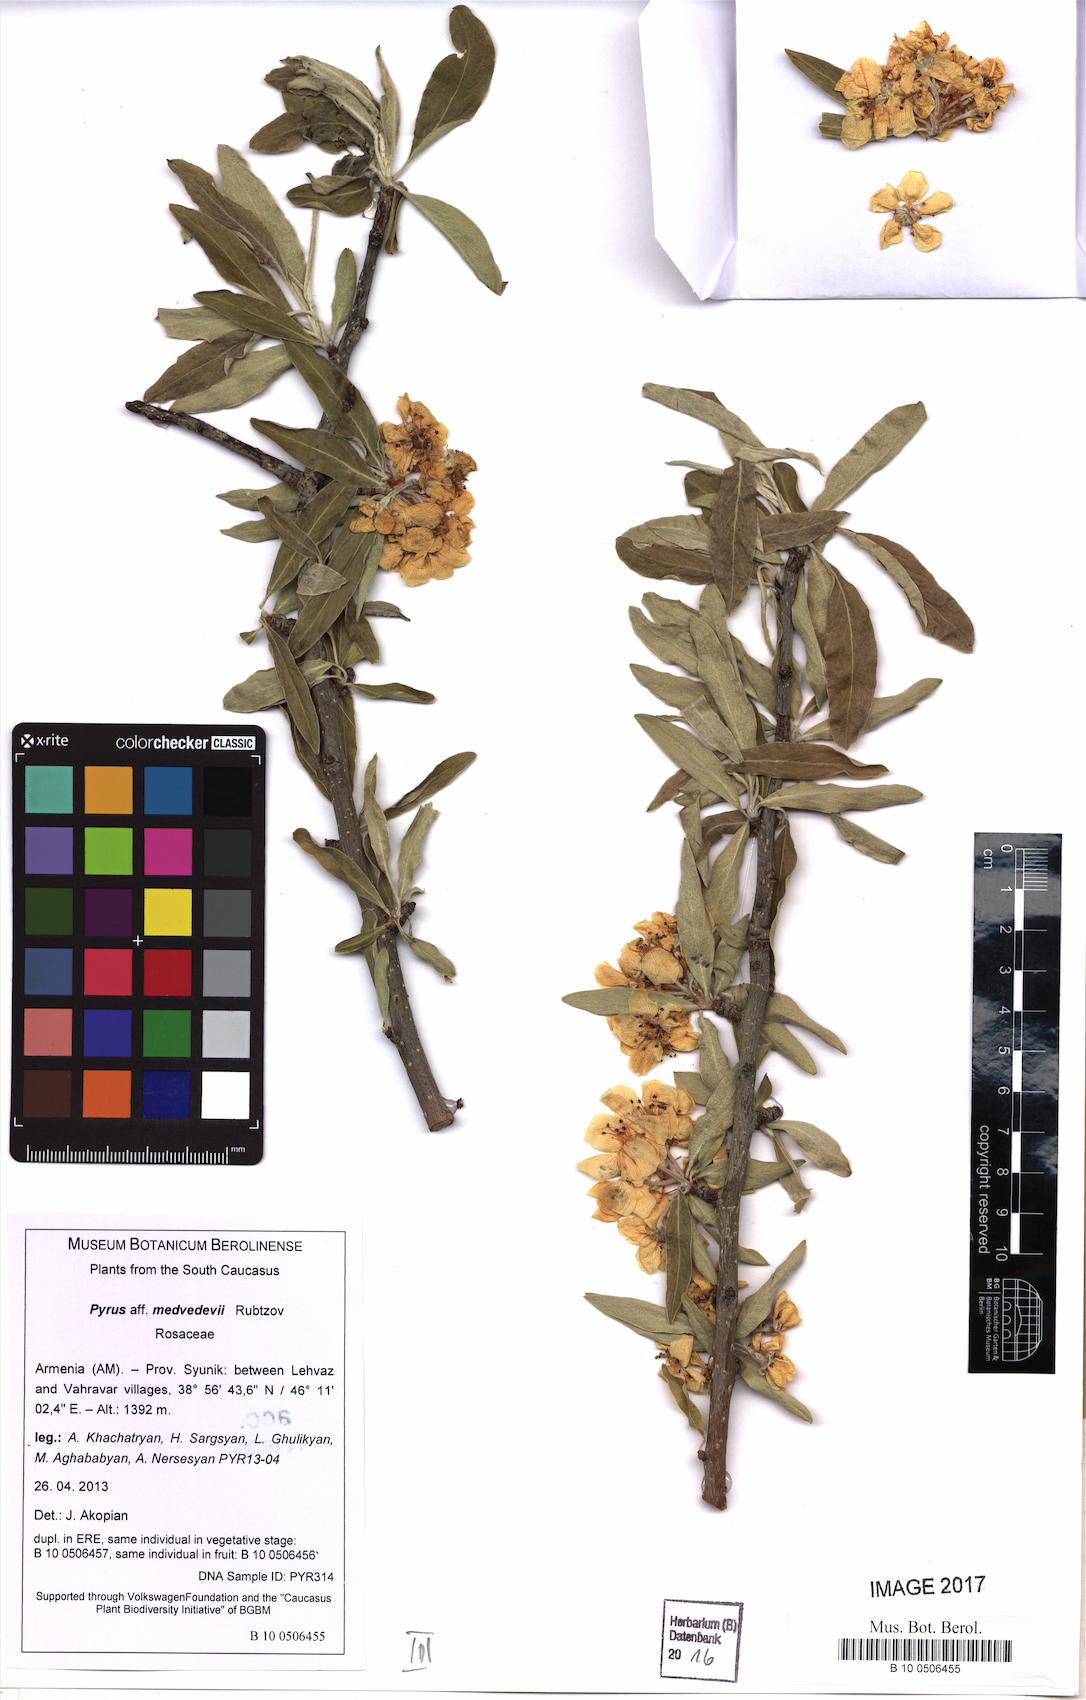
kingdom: Plantae
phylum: Tracheophyta
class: Magnoliopsida
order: Rosales
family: Rosaceae
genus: Pyrus
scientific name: Pyrus medvedevii
